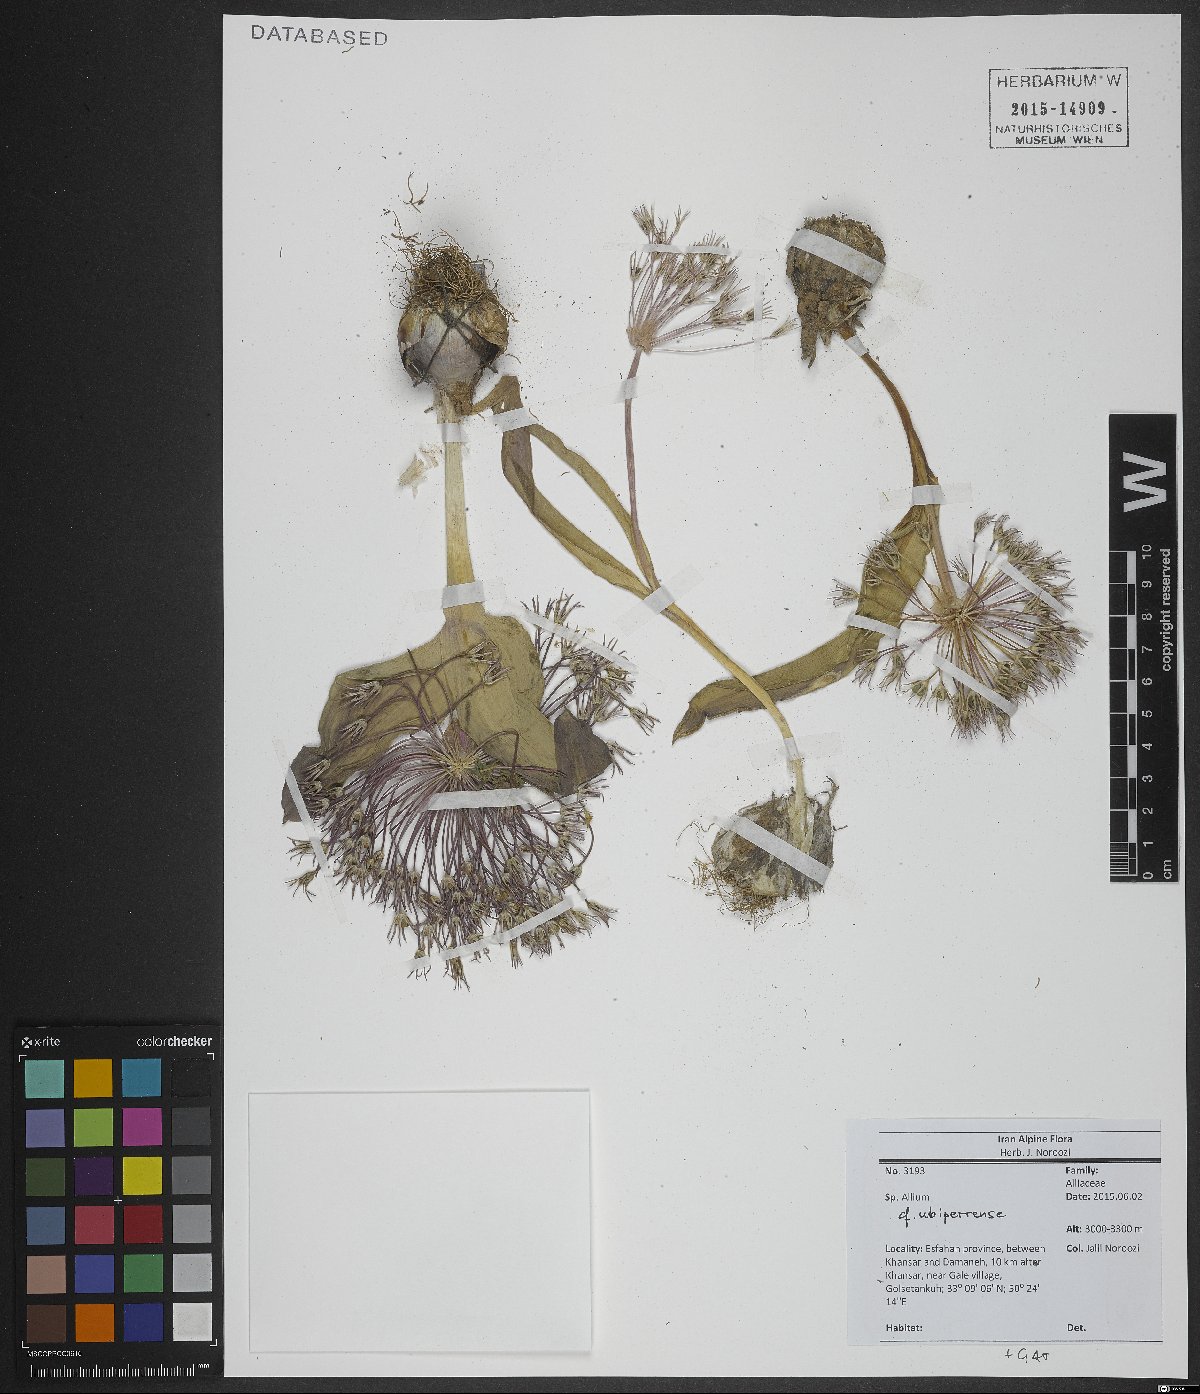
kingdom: Plantae
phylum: Tracheophyta
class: Liliopsida
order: Asparagales
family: Amaryllidaceae
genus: Allium
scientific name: Allium ubipetrense
